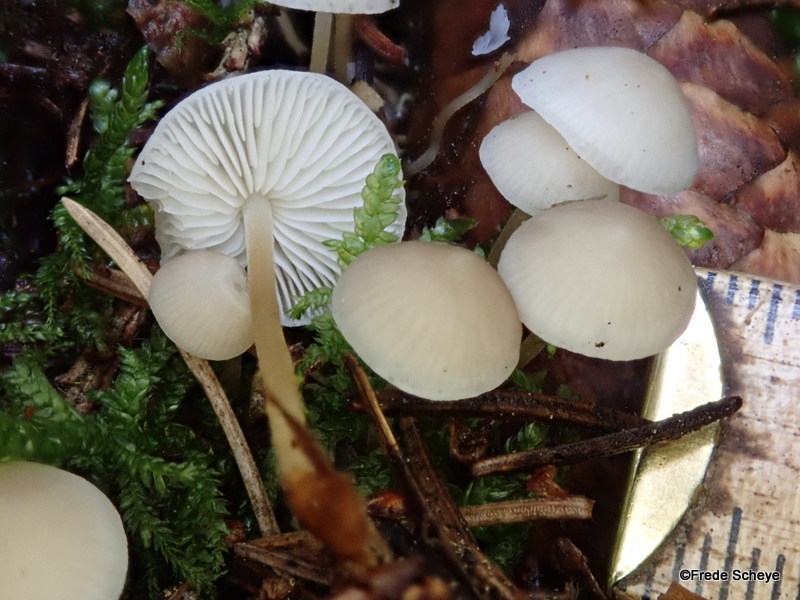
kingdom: Fungi
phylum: Basidiomycota
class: Agaricomycetes
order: Agaricales
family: Physalacriaceae
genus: Strobilurus
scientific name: Strobilurus esculentus
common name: gran-koglehat
